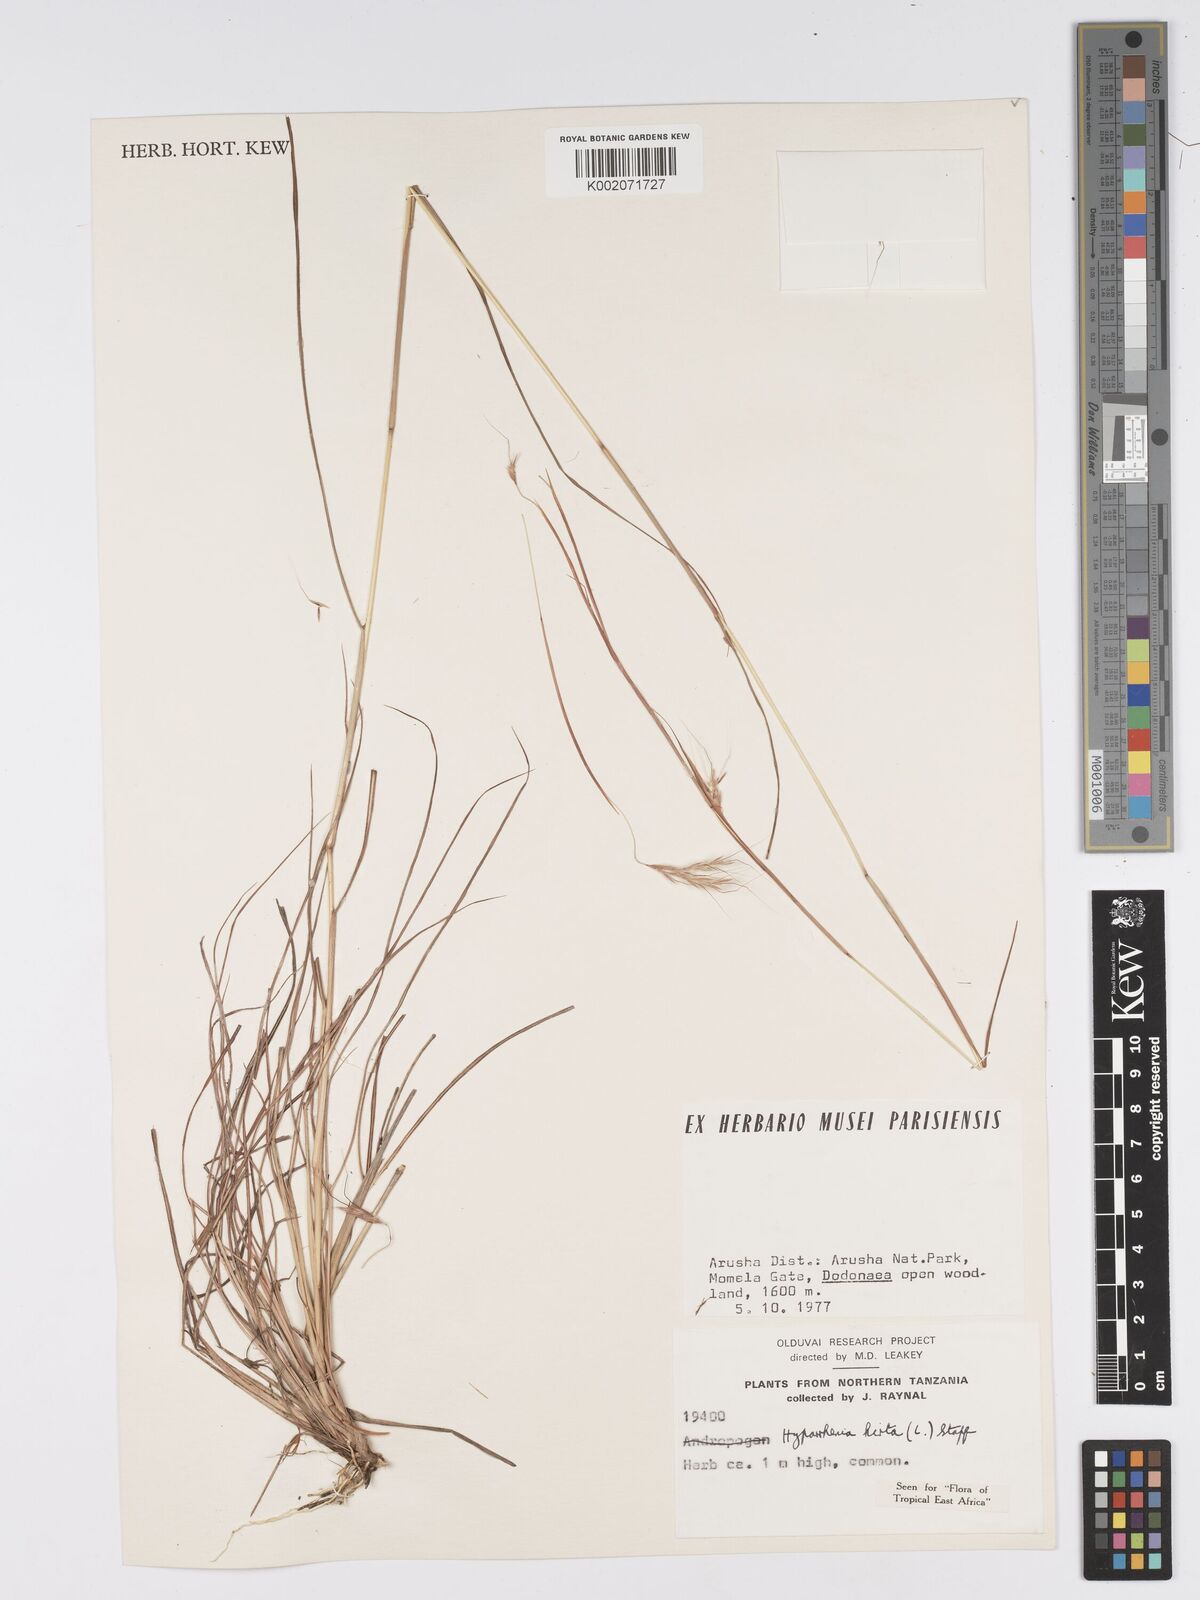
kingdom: Plantae
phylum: Tracheophyta
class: Liliopsida
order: Poales
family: Poaceae
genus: Hyparrhenia
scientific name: Hyparrhenia hirta
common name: Thatching grass
